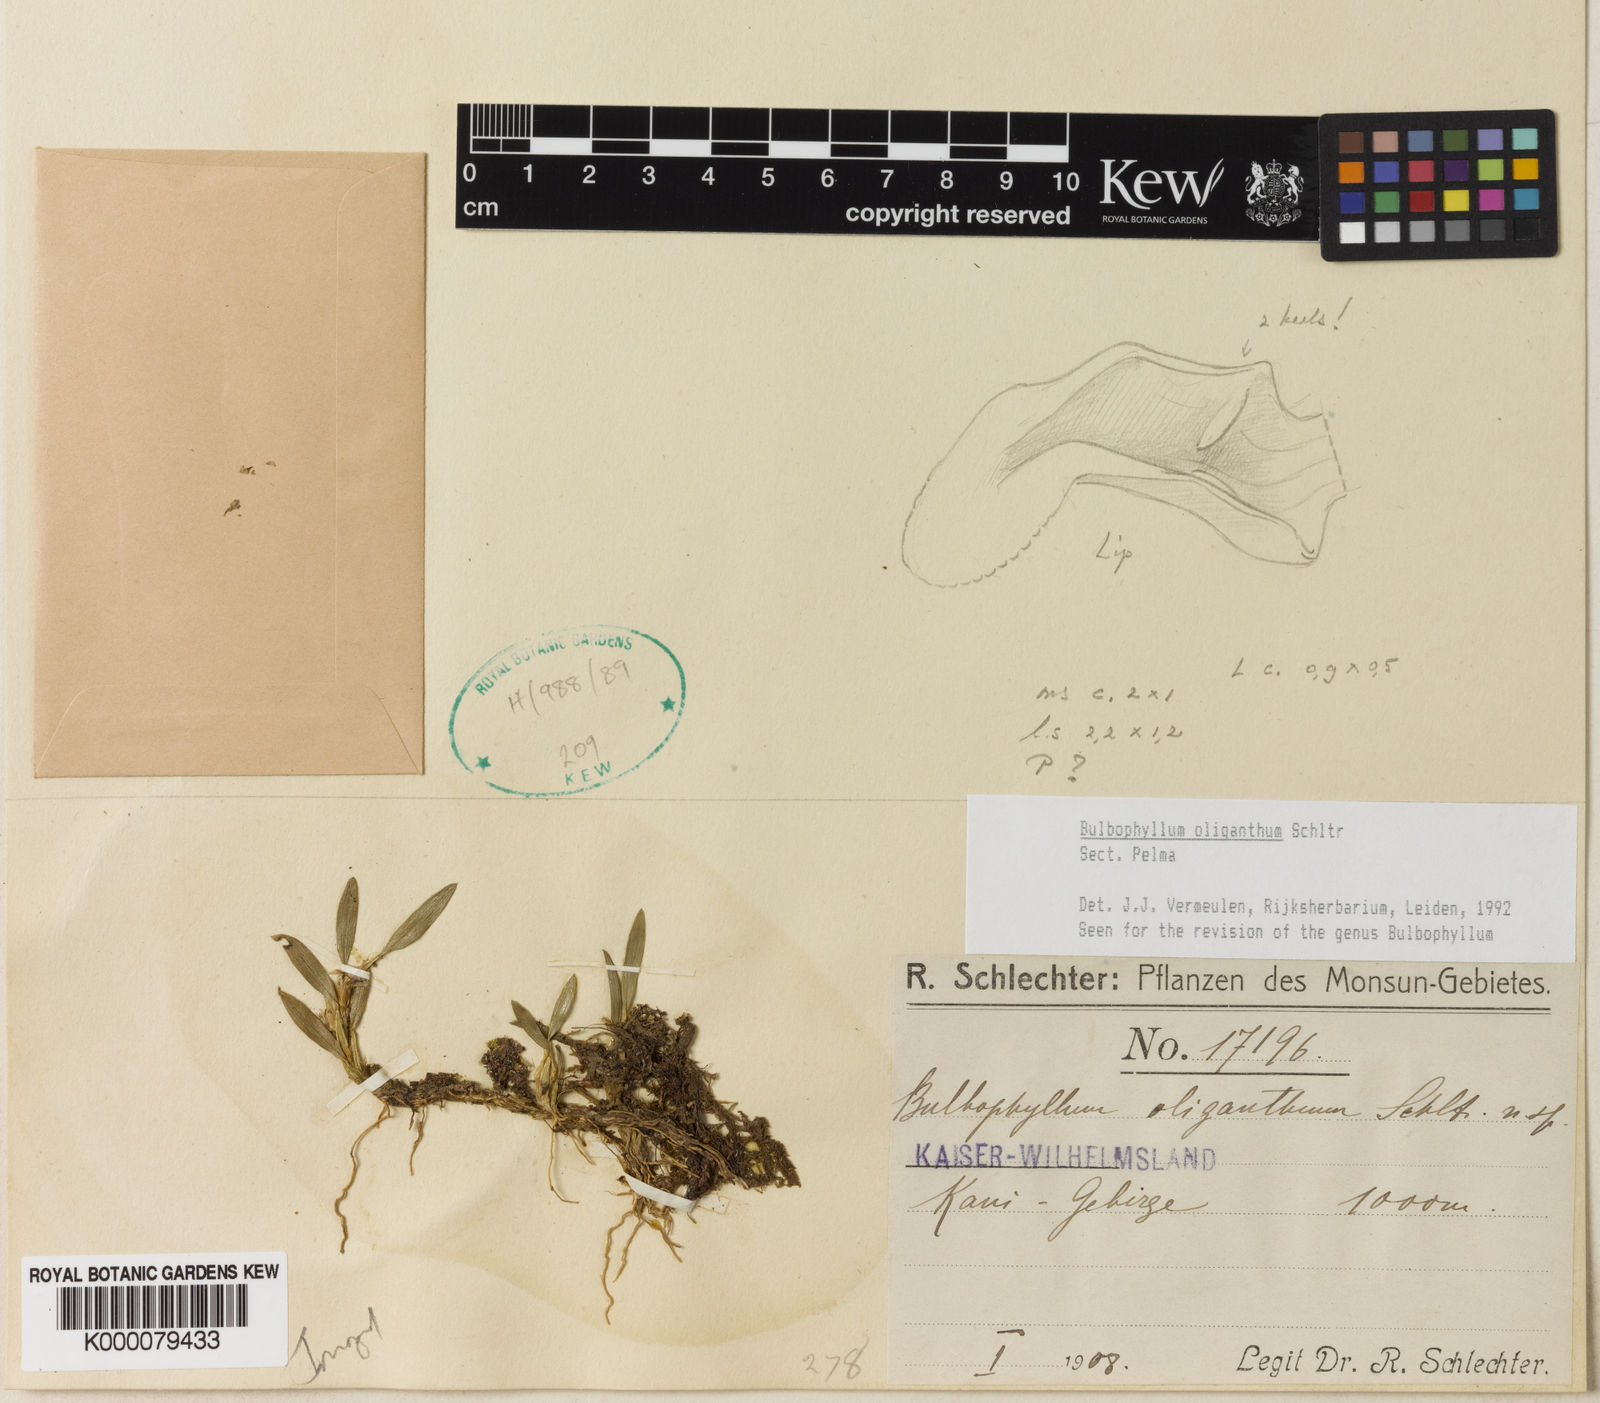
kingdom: Plantae
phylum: Tracheophyta
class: Liliopsida
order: Asparagales
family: Orchidaceae
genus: Bulbophyllum
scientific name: Bulbophyllum
